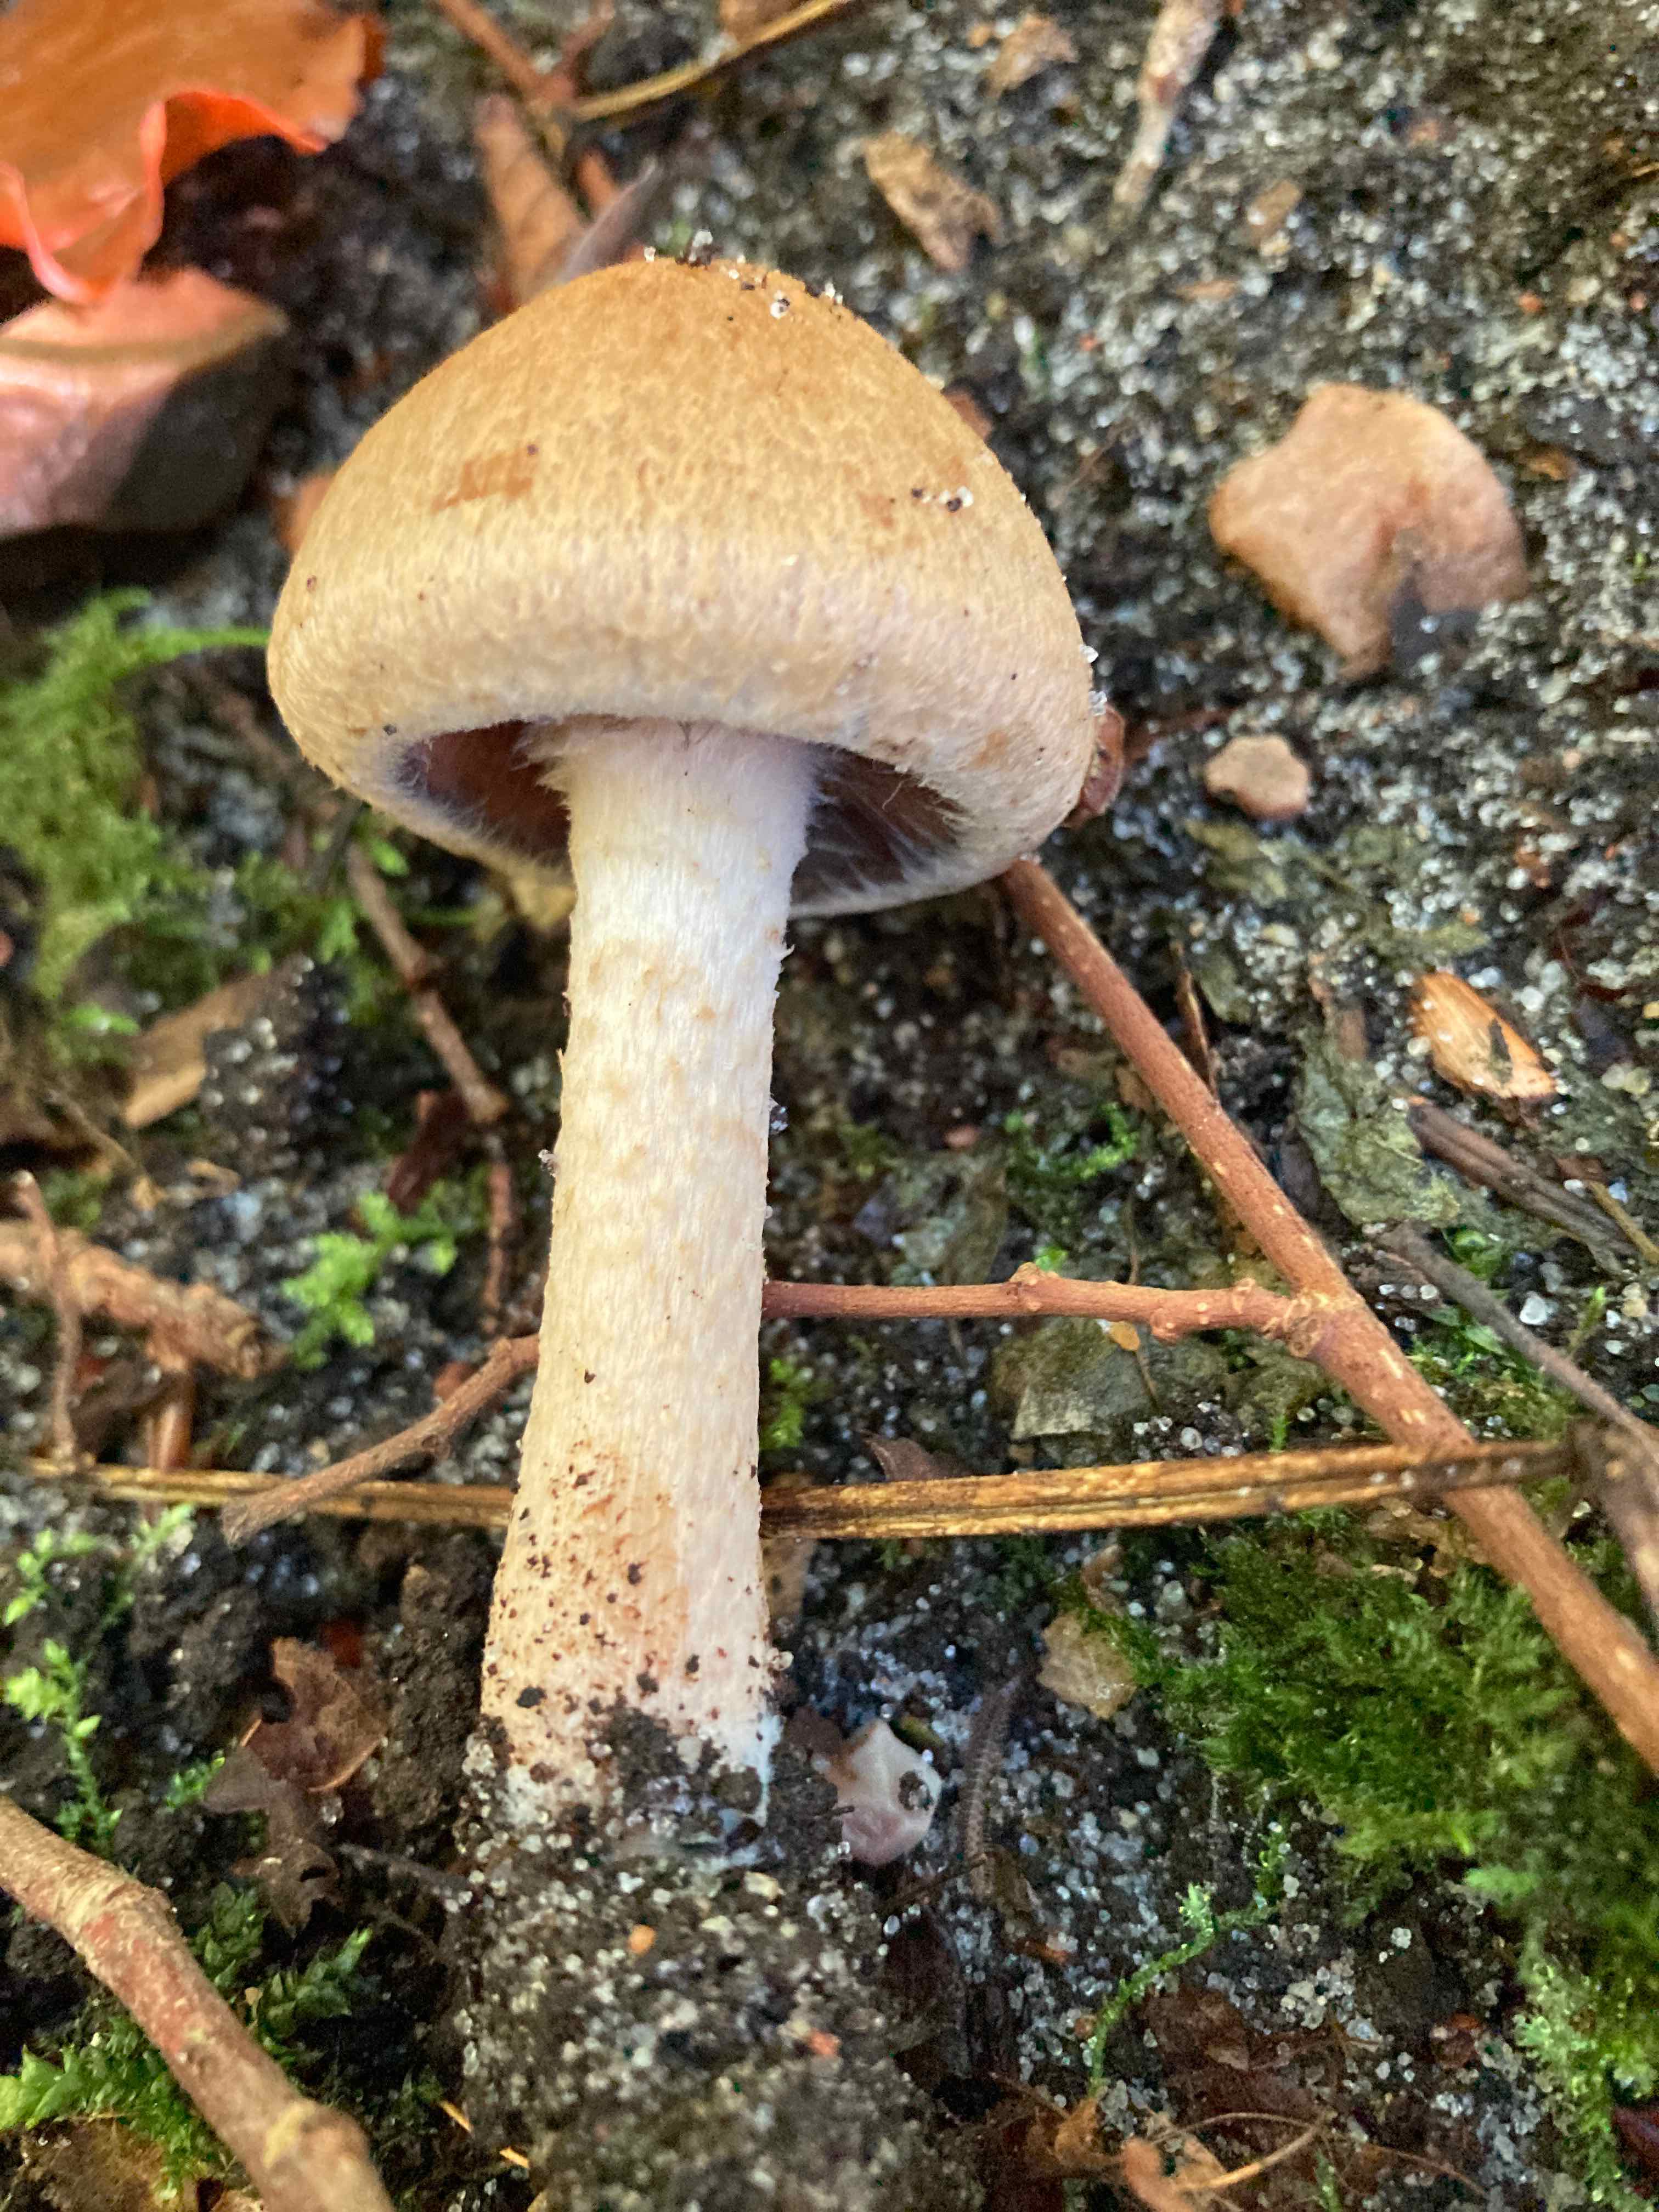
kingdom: Fungi
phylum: Basidiomycota
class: Agaricomycetes
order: Agaricales
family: Psathyrellaceae
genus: Lacrymaria
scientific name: Lacrymaria lacrymabunda
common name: grædende mørkhat
